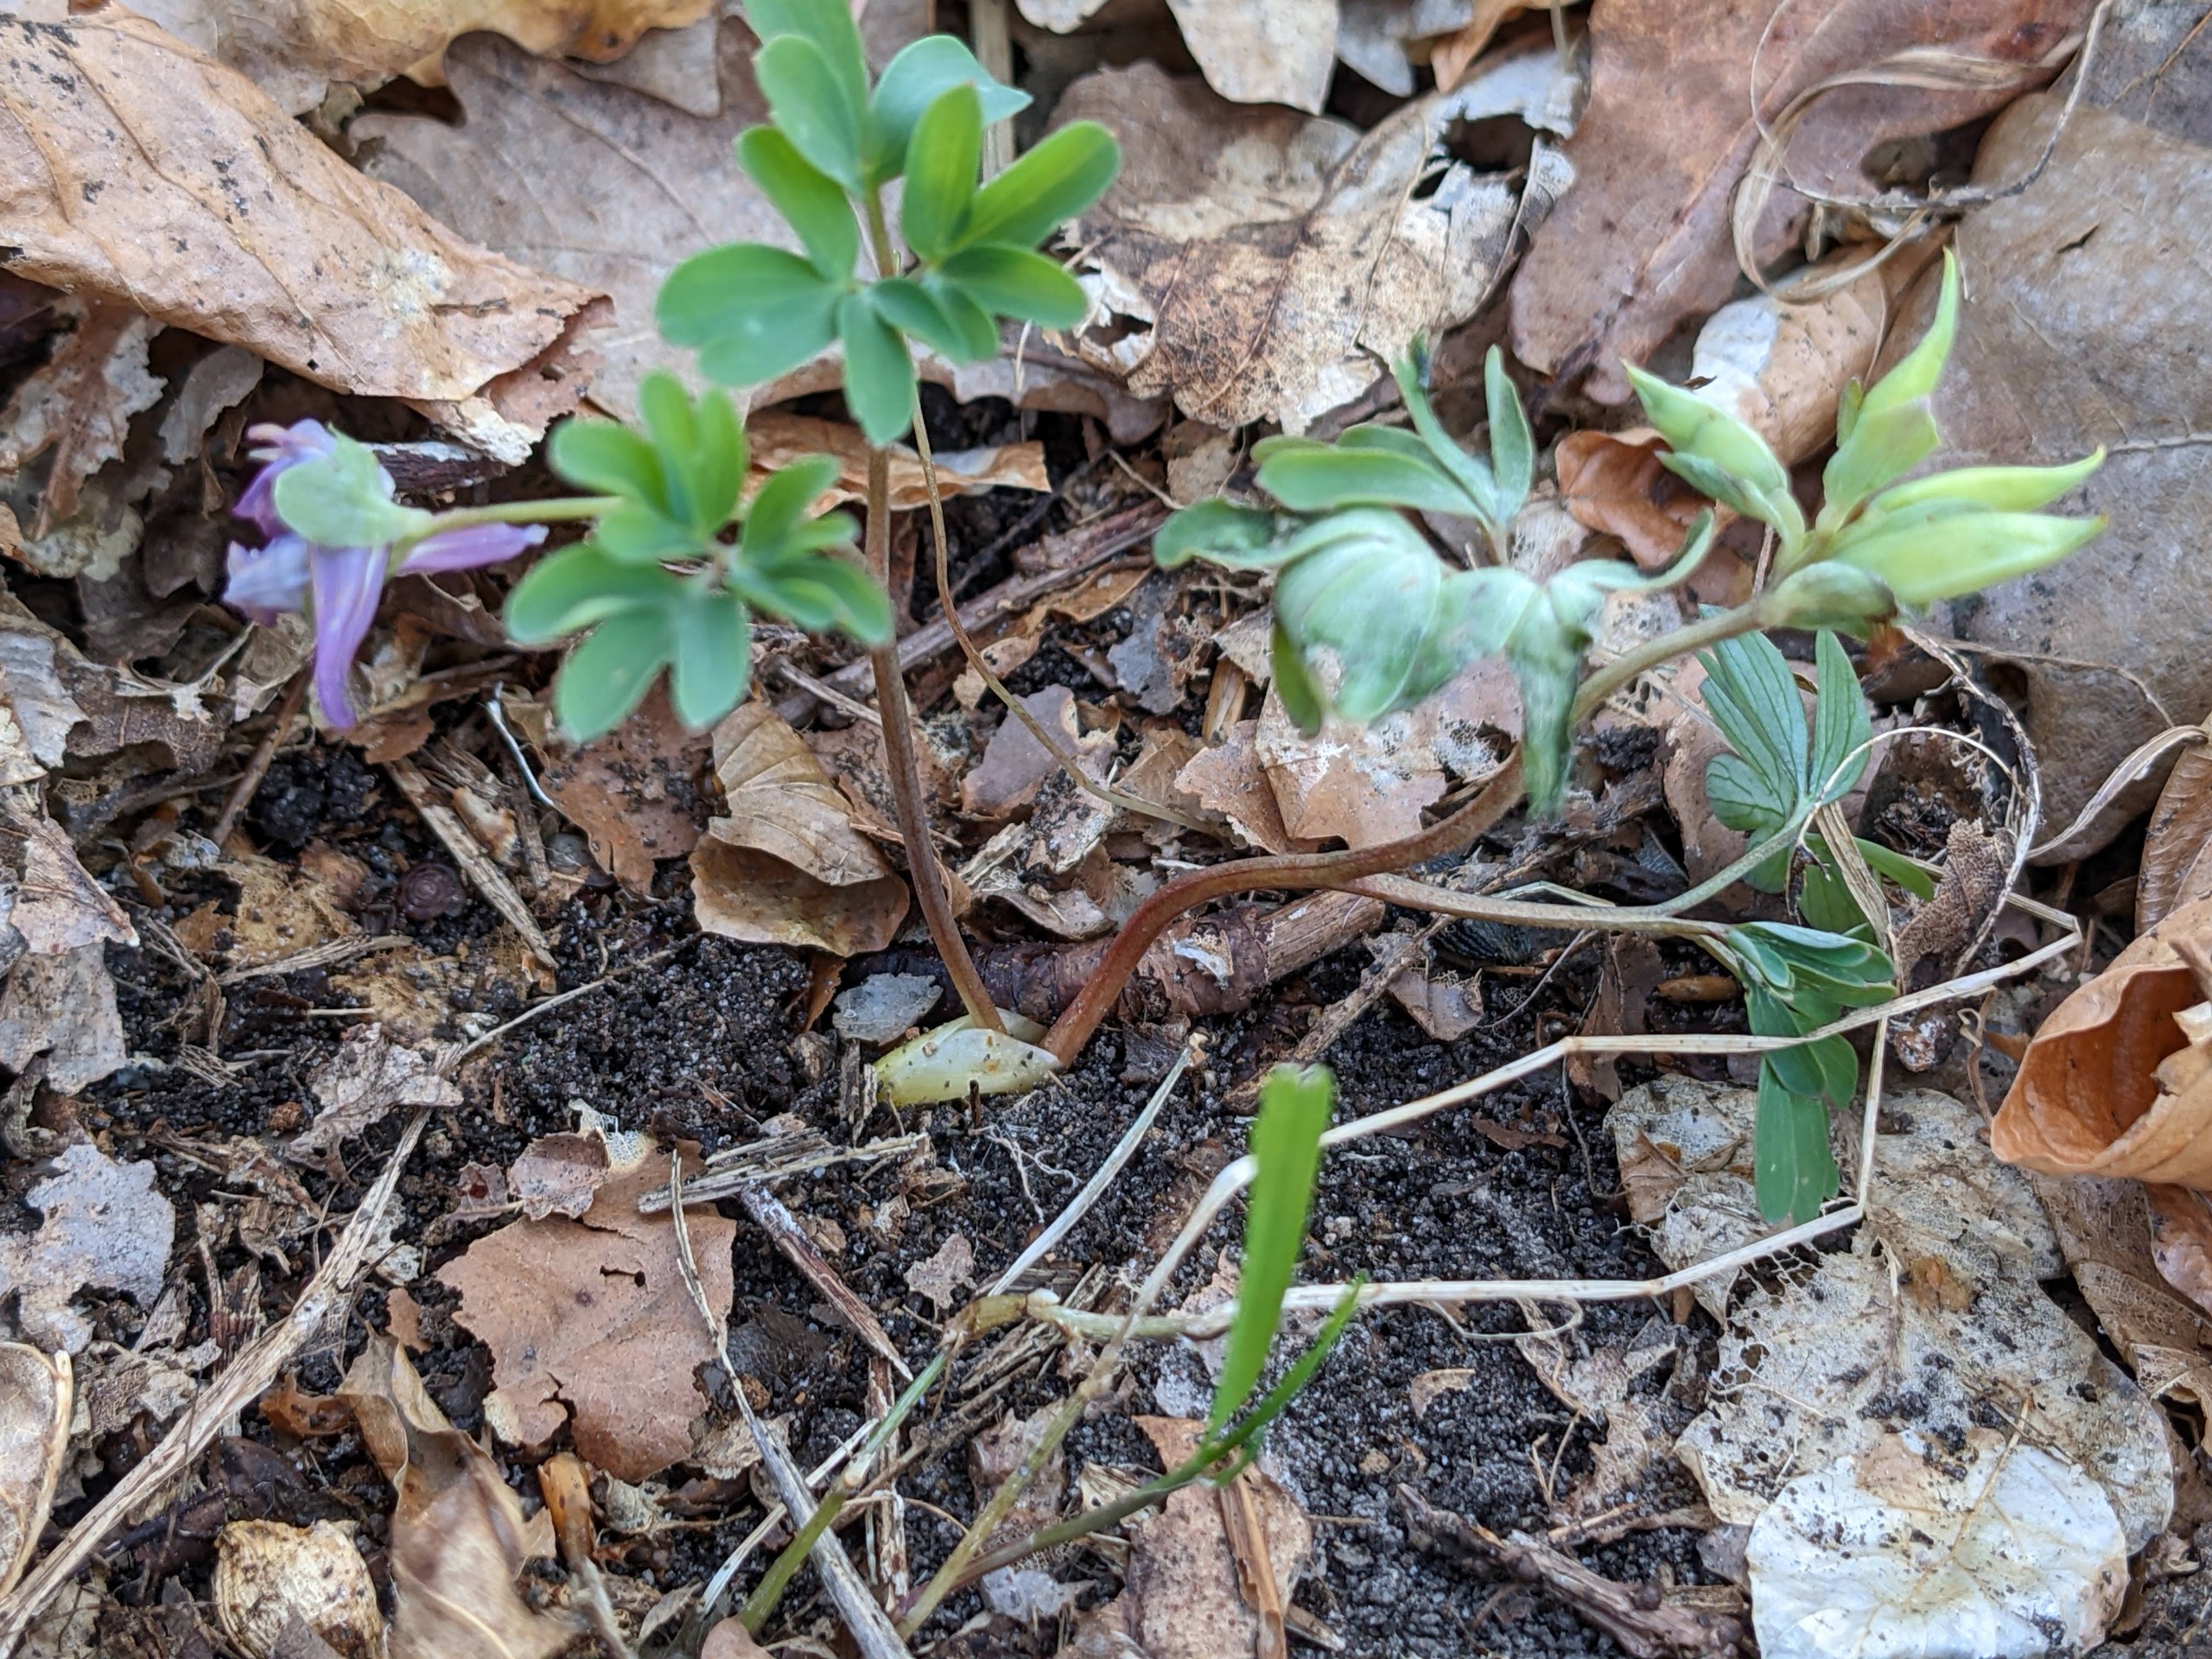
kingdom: Plantae
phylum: Tracheophyta
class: Magnoliopsida
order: Ranunculales
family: Papaveraceae
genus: Corydalis
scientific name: Corydalis intermedia
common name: Liden lærkespore
